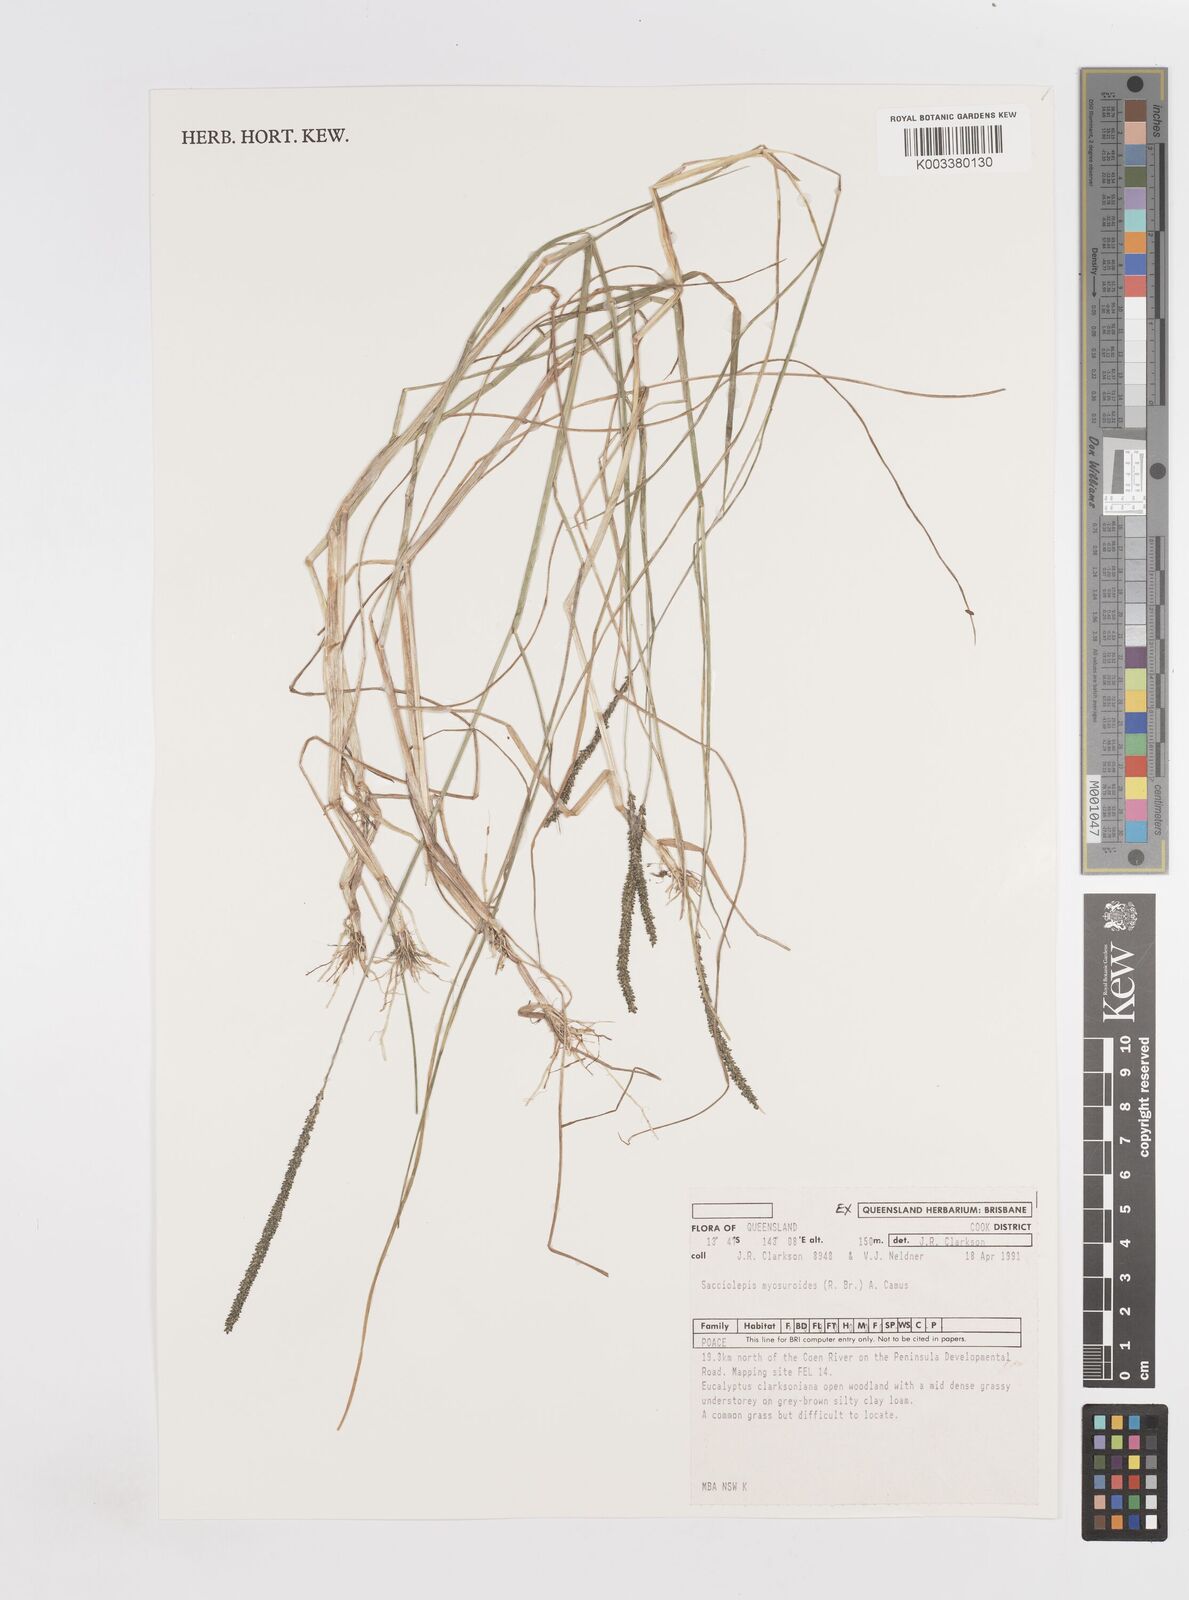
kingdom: Plantae
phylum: Tracheophyta
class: Liliopsida
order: Poales
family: Poaceae
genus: Sacciolepis
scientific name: Sacciolepis myosuroides
